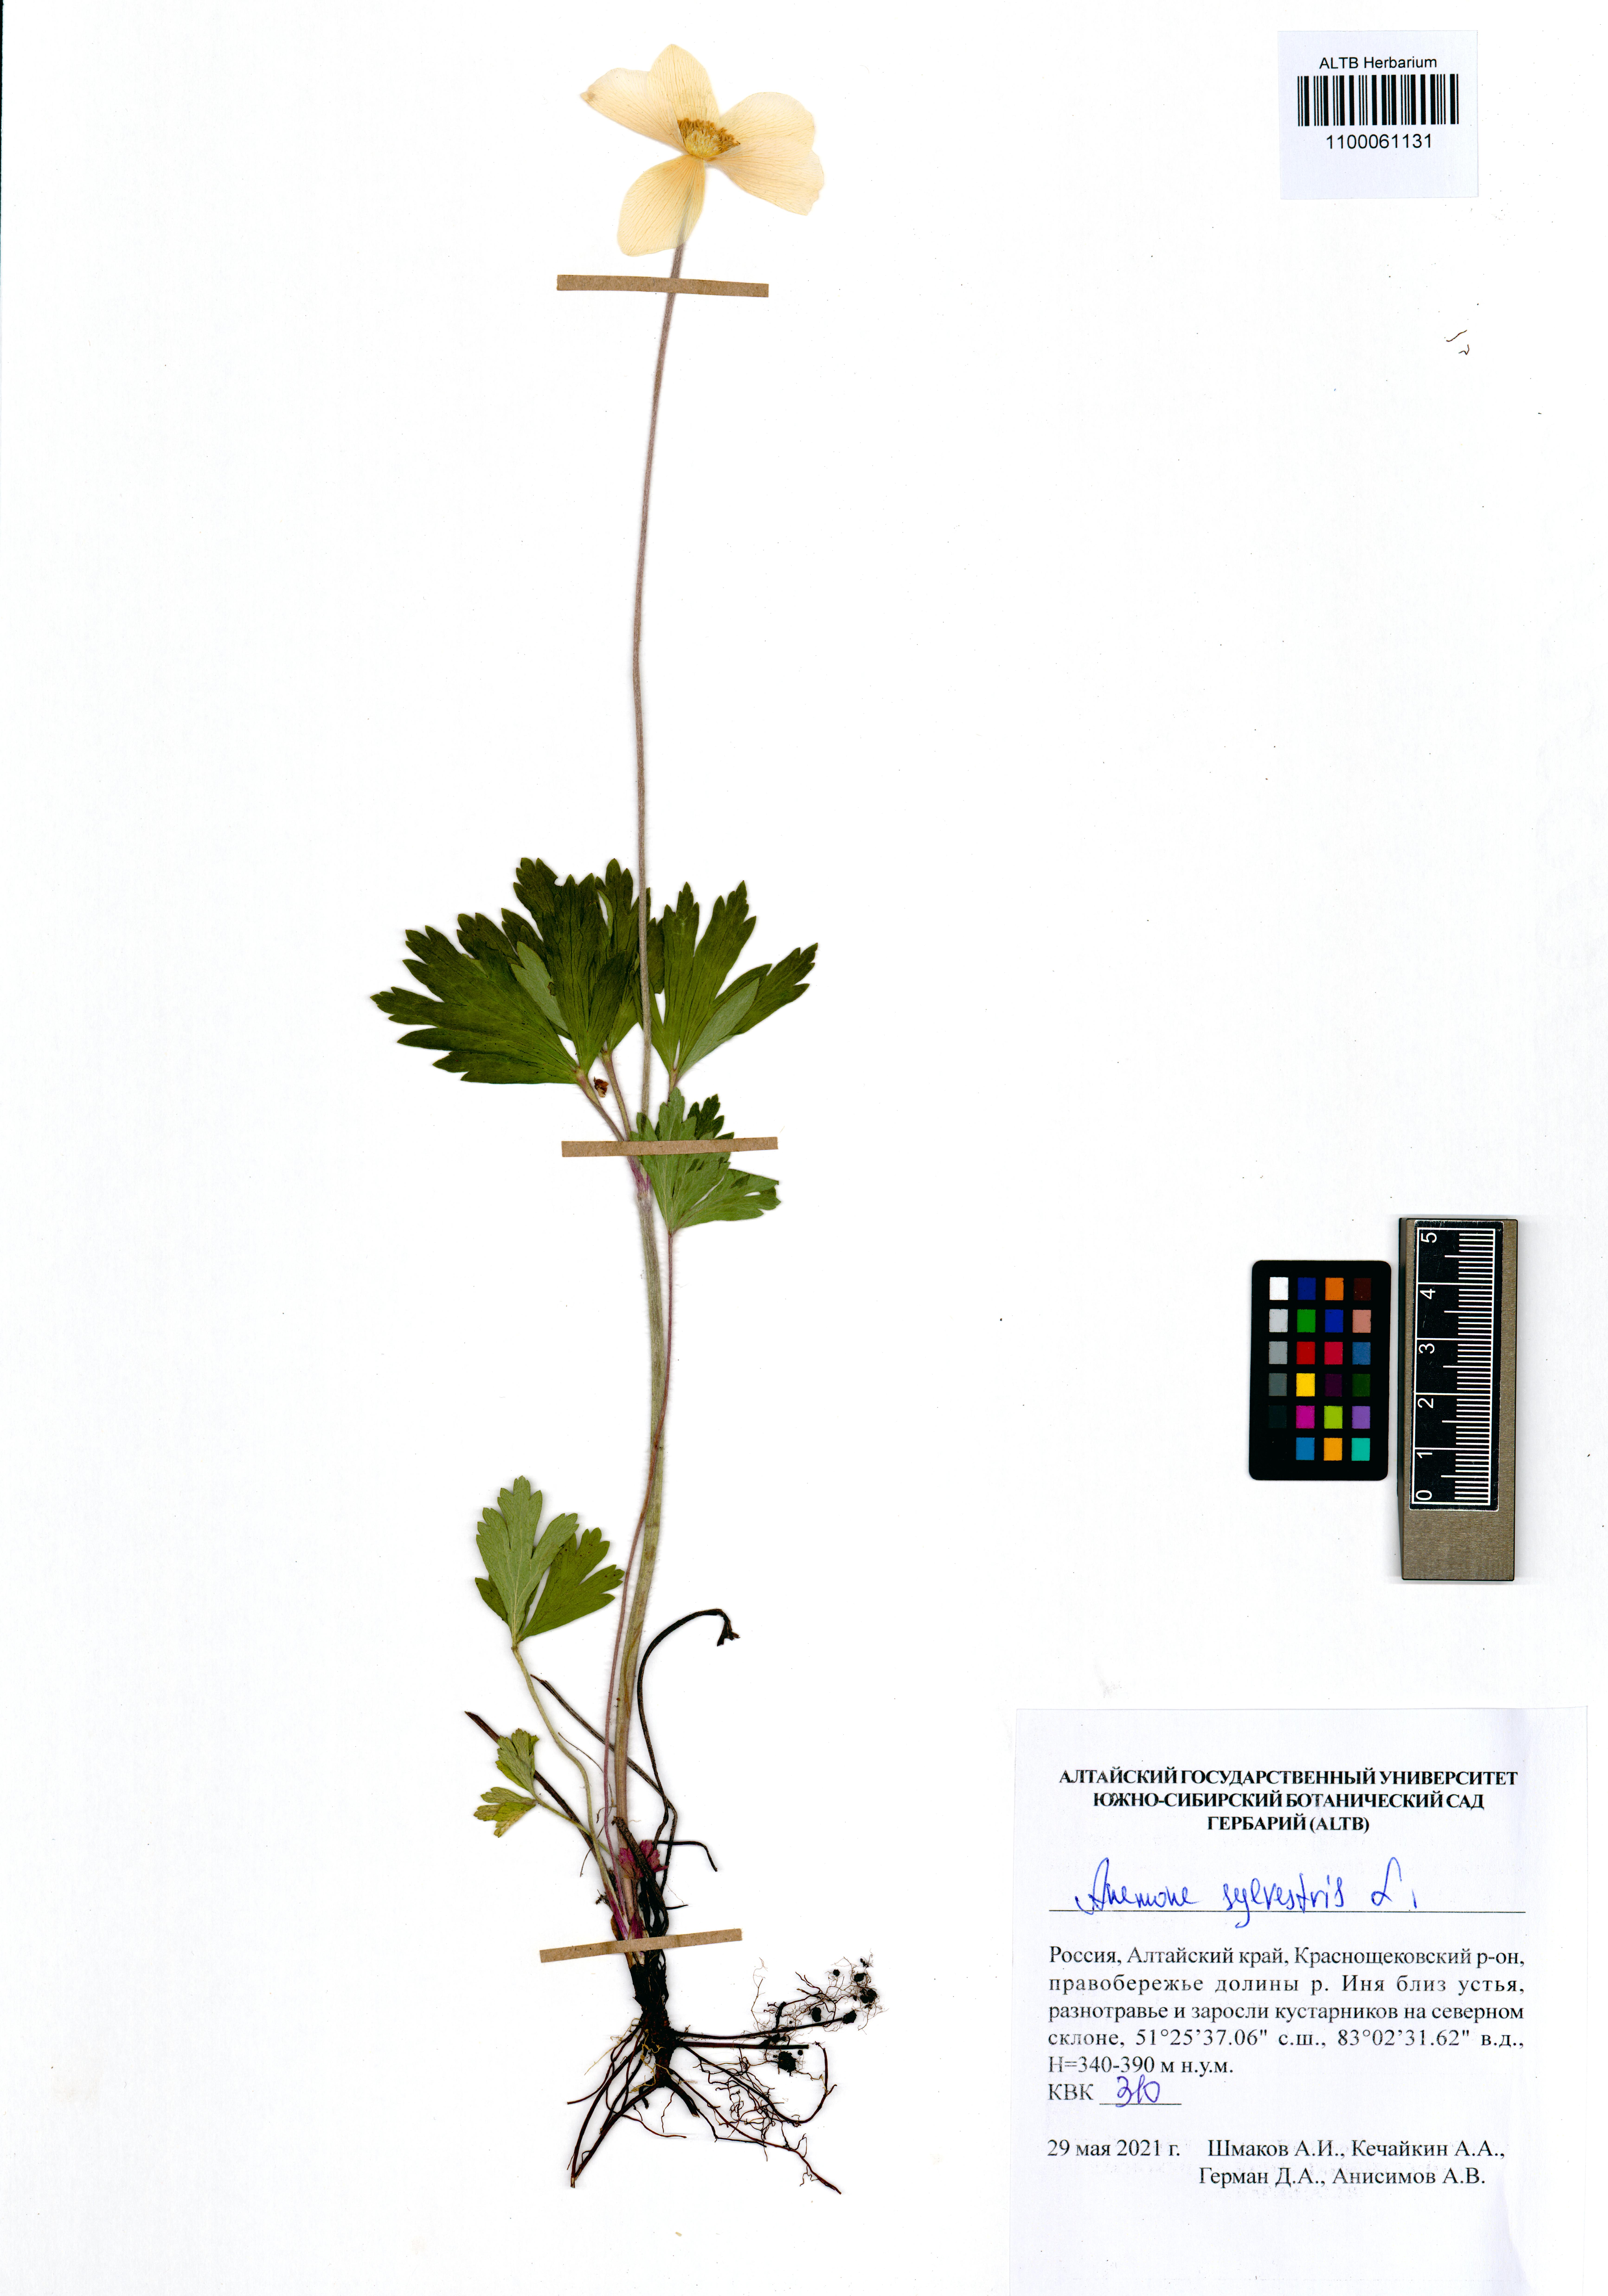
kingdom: Plantae
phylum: Tracheophyta
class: Magnoliopsida
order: Ranunculales
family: Ranunculaceae
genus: Anemone
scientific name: Anemone sylvestris
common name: Snowdrop anemone
